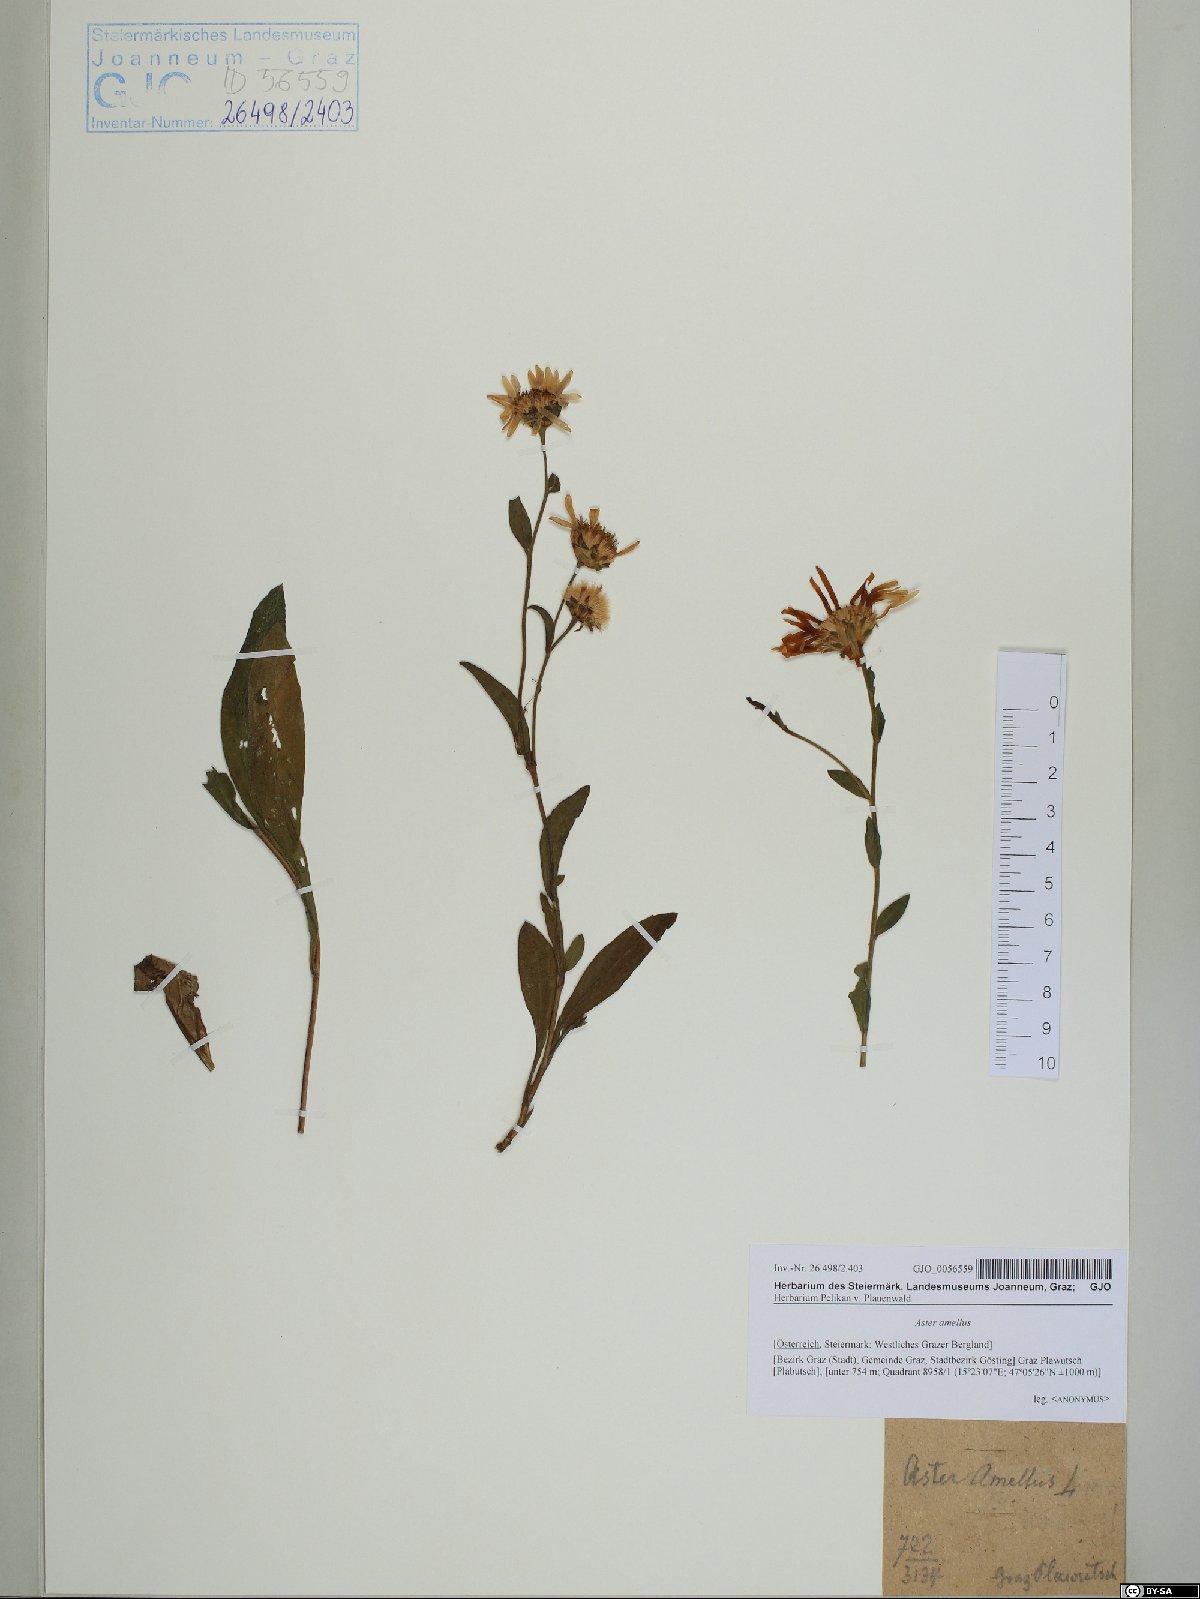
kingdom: Plantae
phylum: Tracheophyta
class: Magnoliopsida
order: Asterales
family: Asteraceae
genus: Aster
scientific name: Aster amellus
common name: European michaelmas daisy
